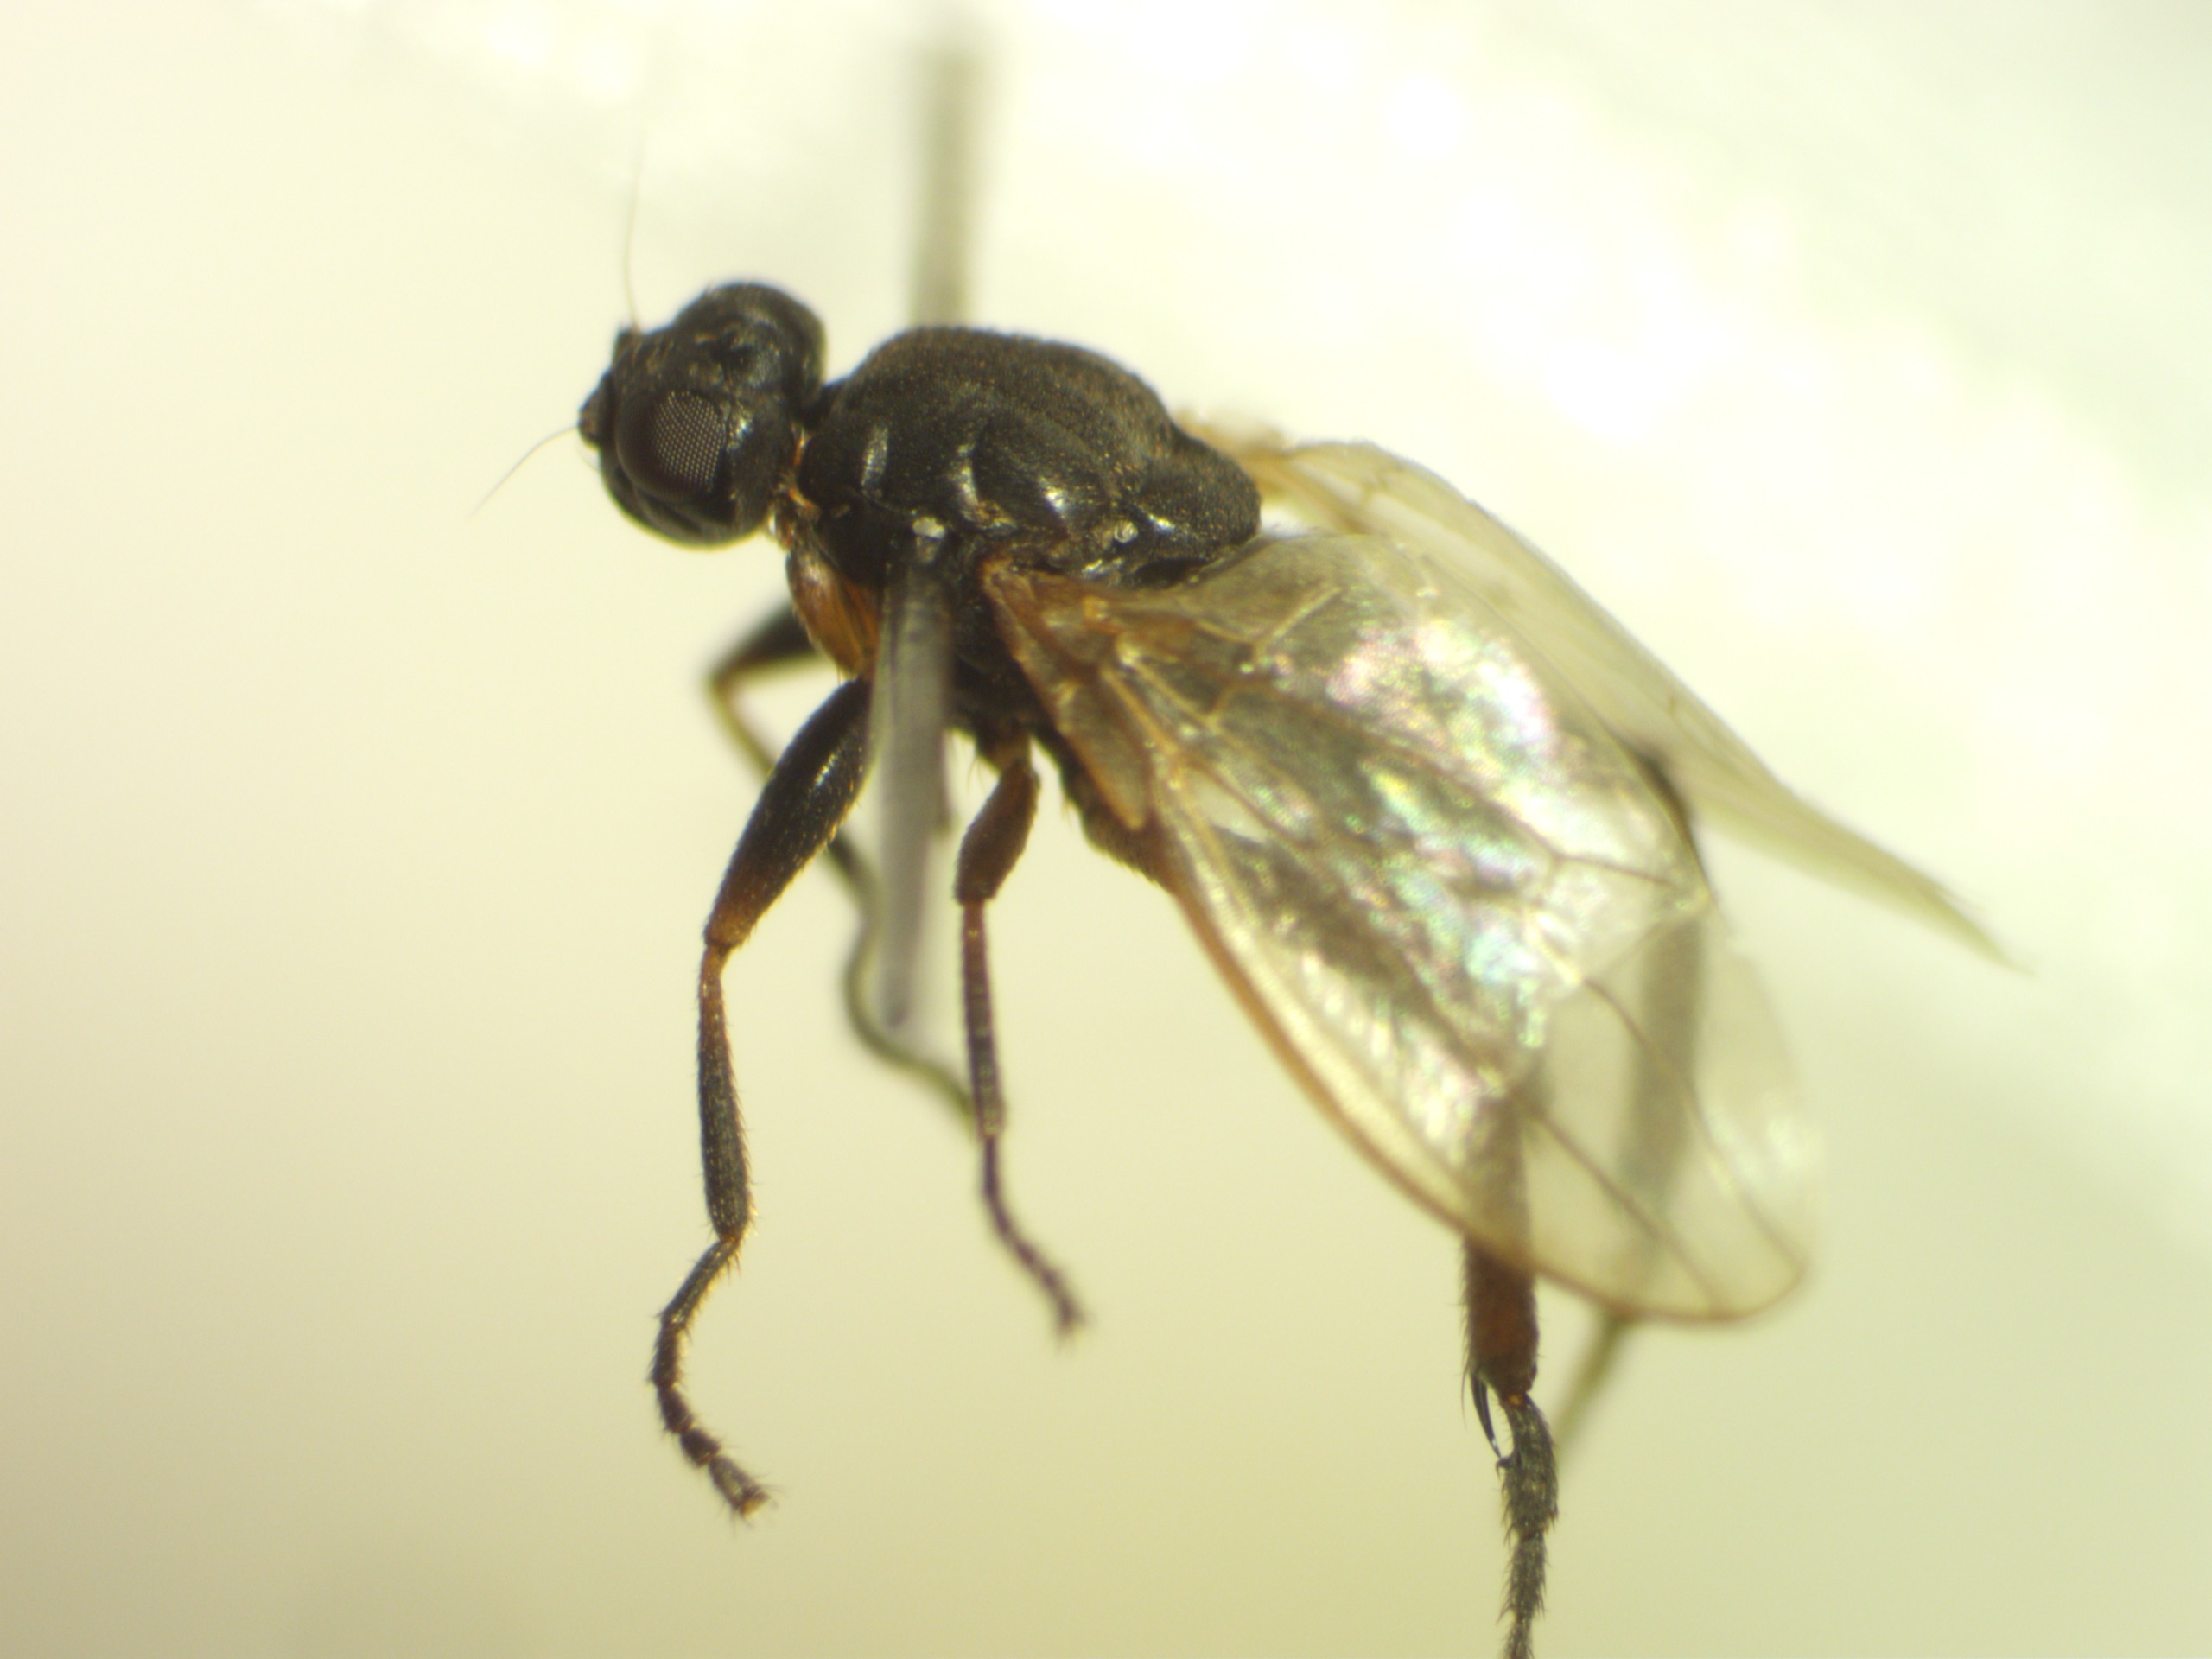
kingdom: Animalia
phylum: Arthropoda
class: Insecta
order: Diptera
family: Sphaeroceridae
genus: Sphaerocera
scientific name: Sphaerocera curvipes
